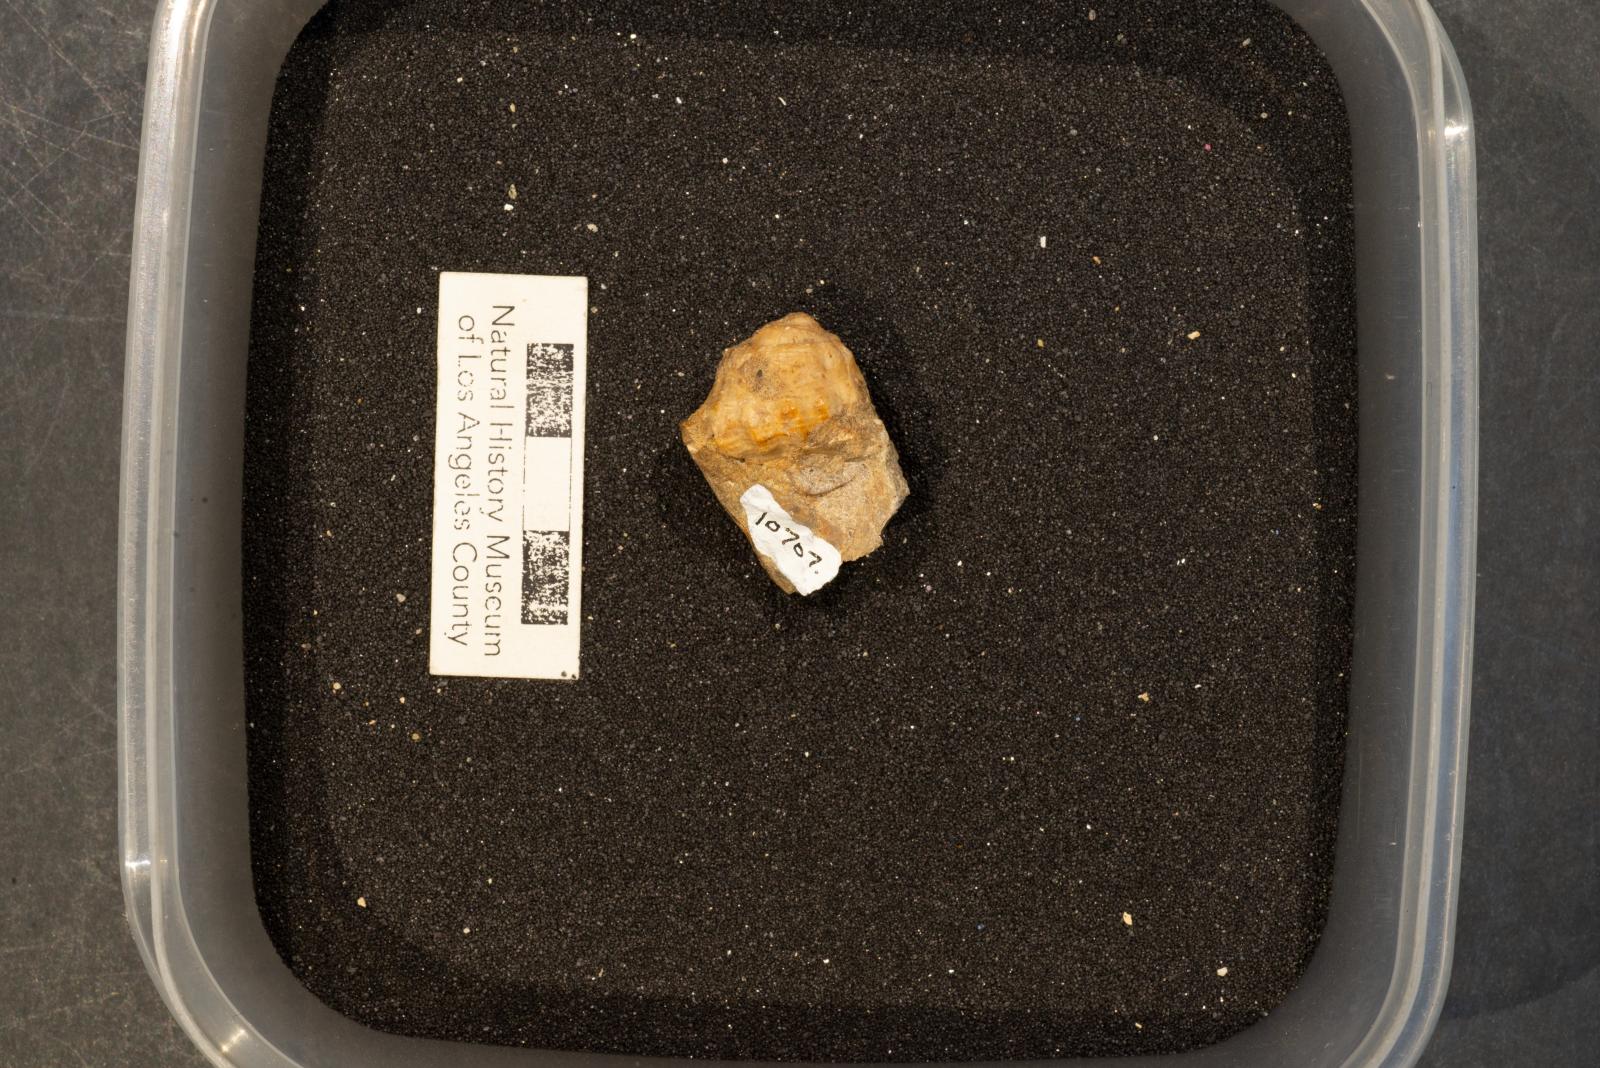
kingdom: Animalia
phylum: Mollusca
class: Gastropoda
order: Neogastropoda
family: Perissityidae
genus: Perissitys
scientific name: Perissitys pacifica
